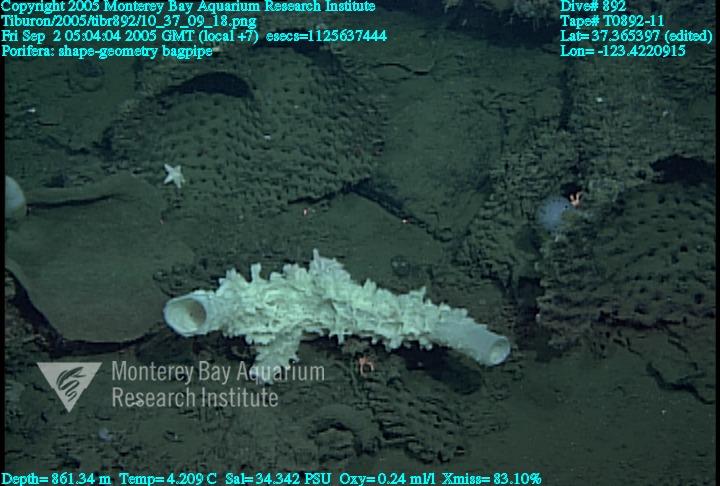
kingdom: Animalia
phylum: Porifera
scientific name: Porifera
